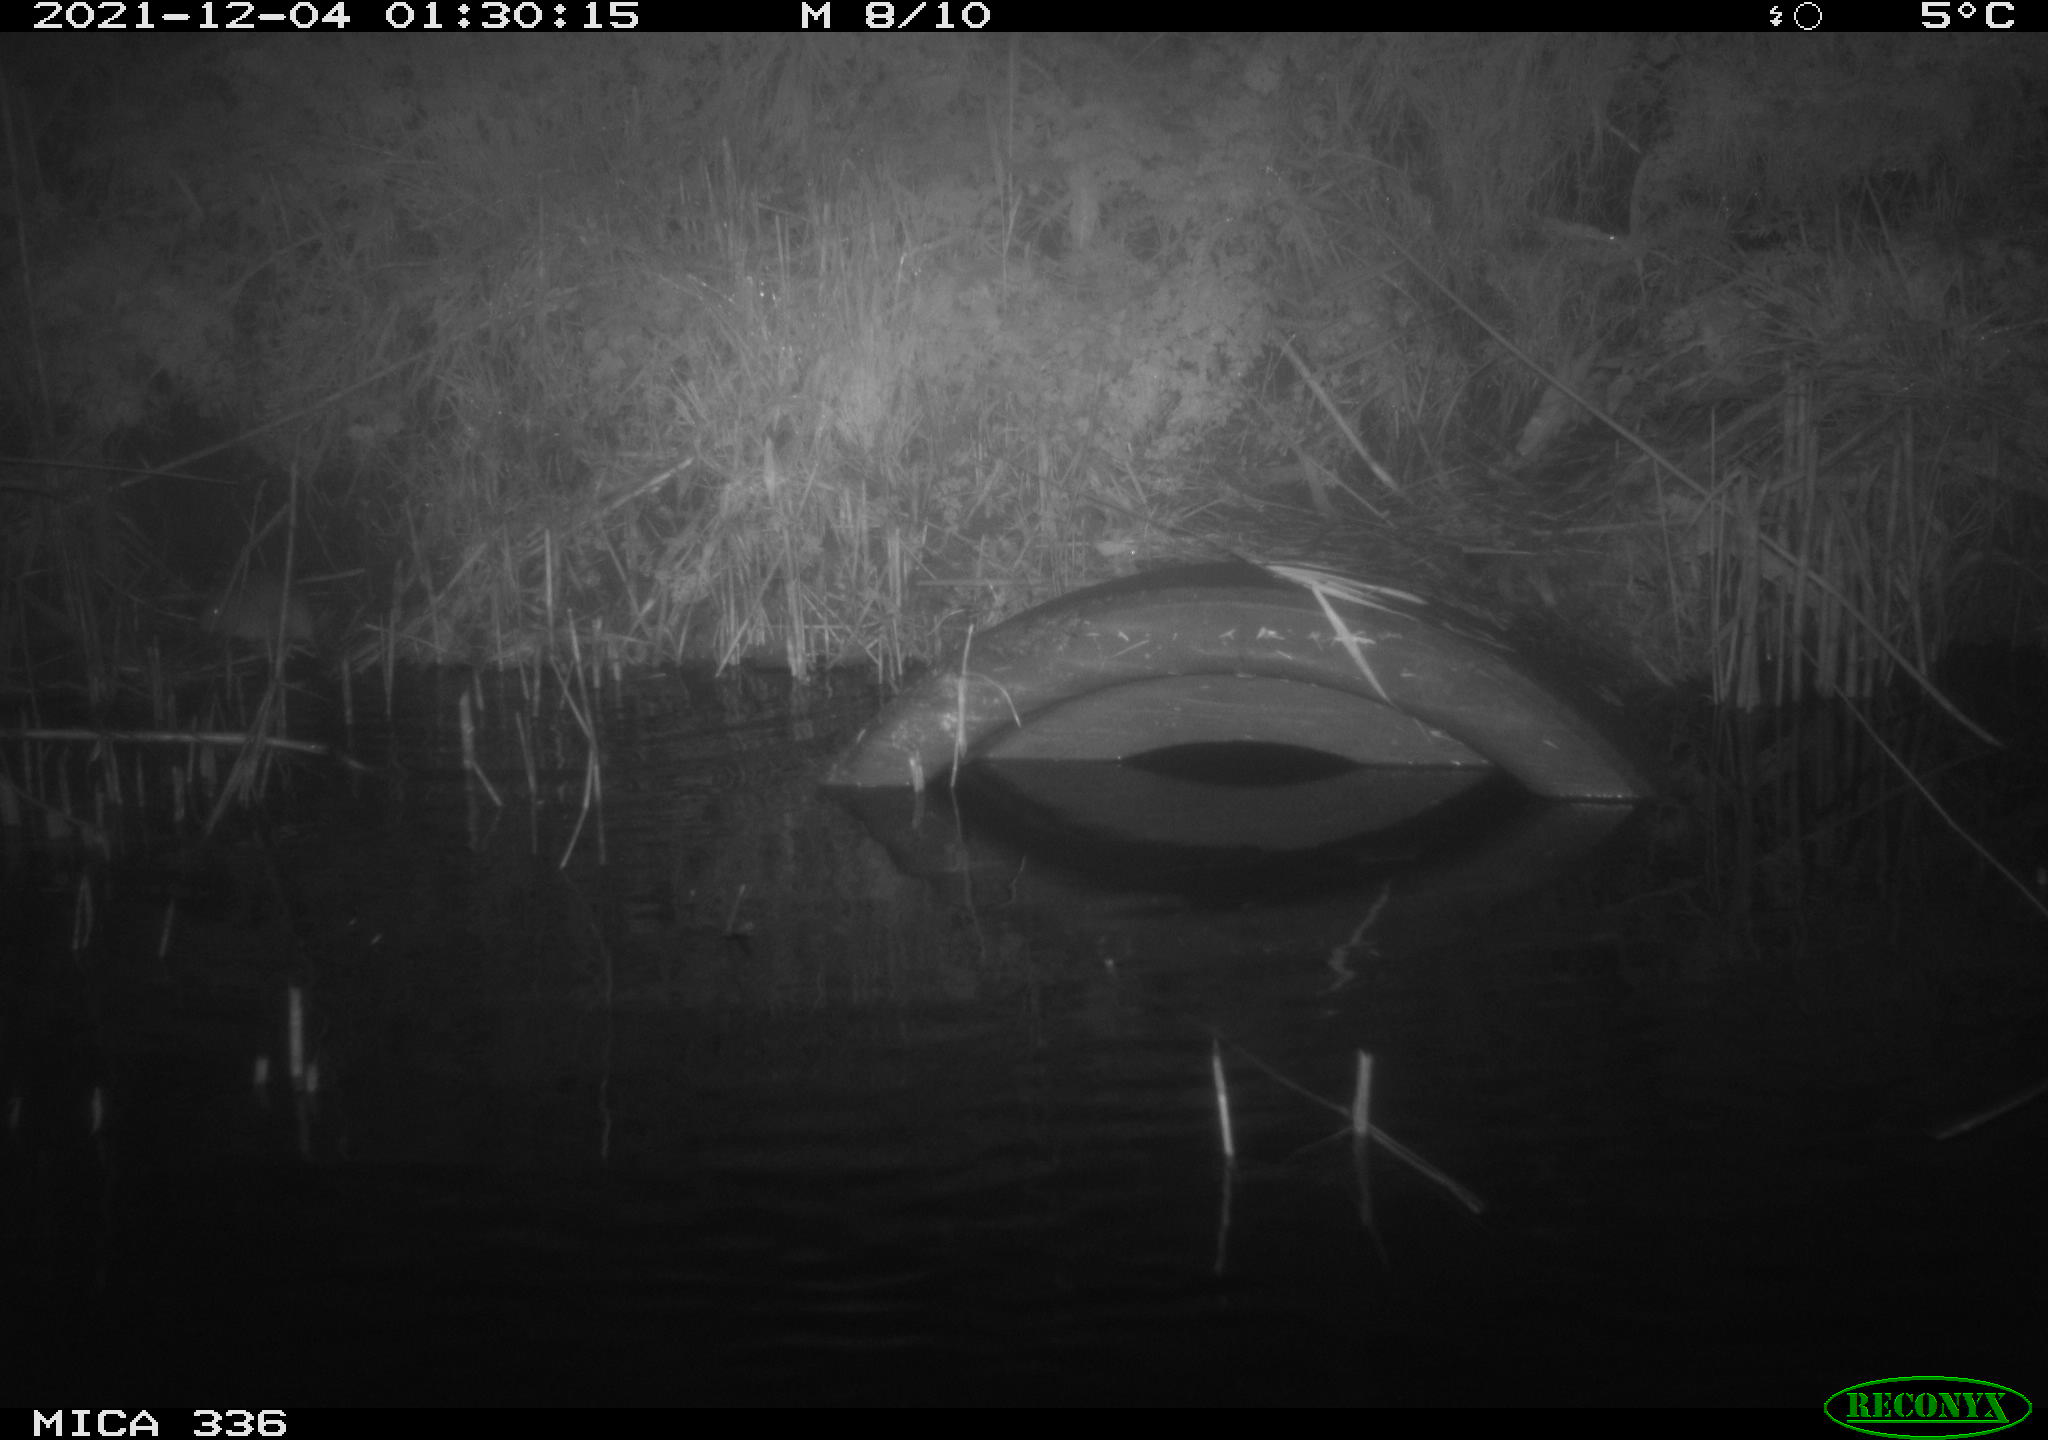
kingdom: Animalia
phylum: Chordata
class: Mammalia
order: Rodentia
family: Muridae
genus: Rattus
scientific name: Rattus norvegicus
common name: Brown rat
